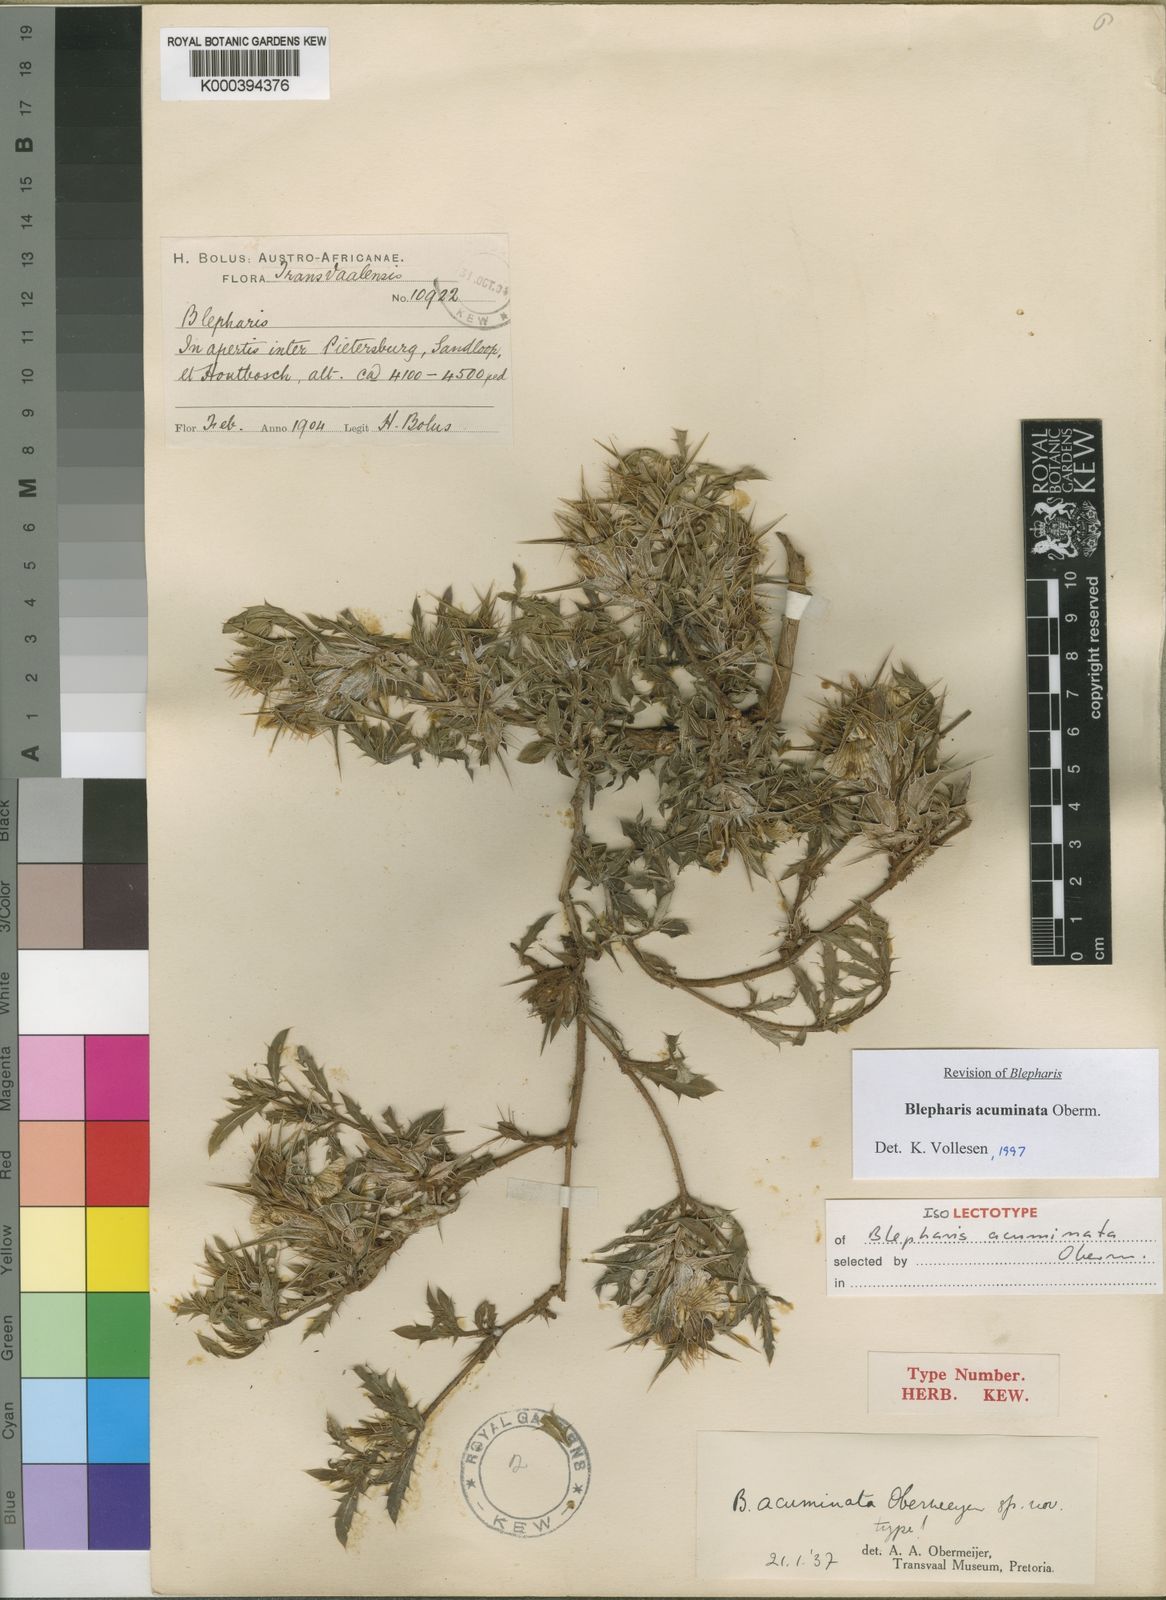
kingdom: Plantae
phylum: Tracheophyta
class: Magnoliopsida
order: Lamiales
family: Acanthaceae
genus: Blepharis
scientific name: Blepharis acuminata
